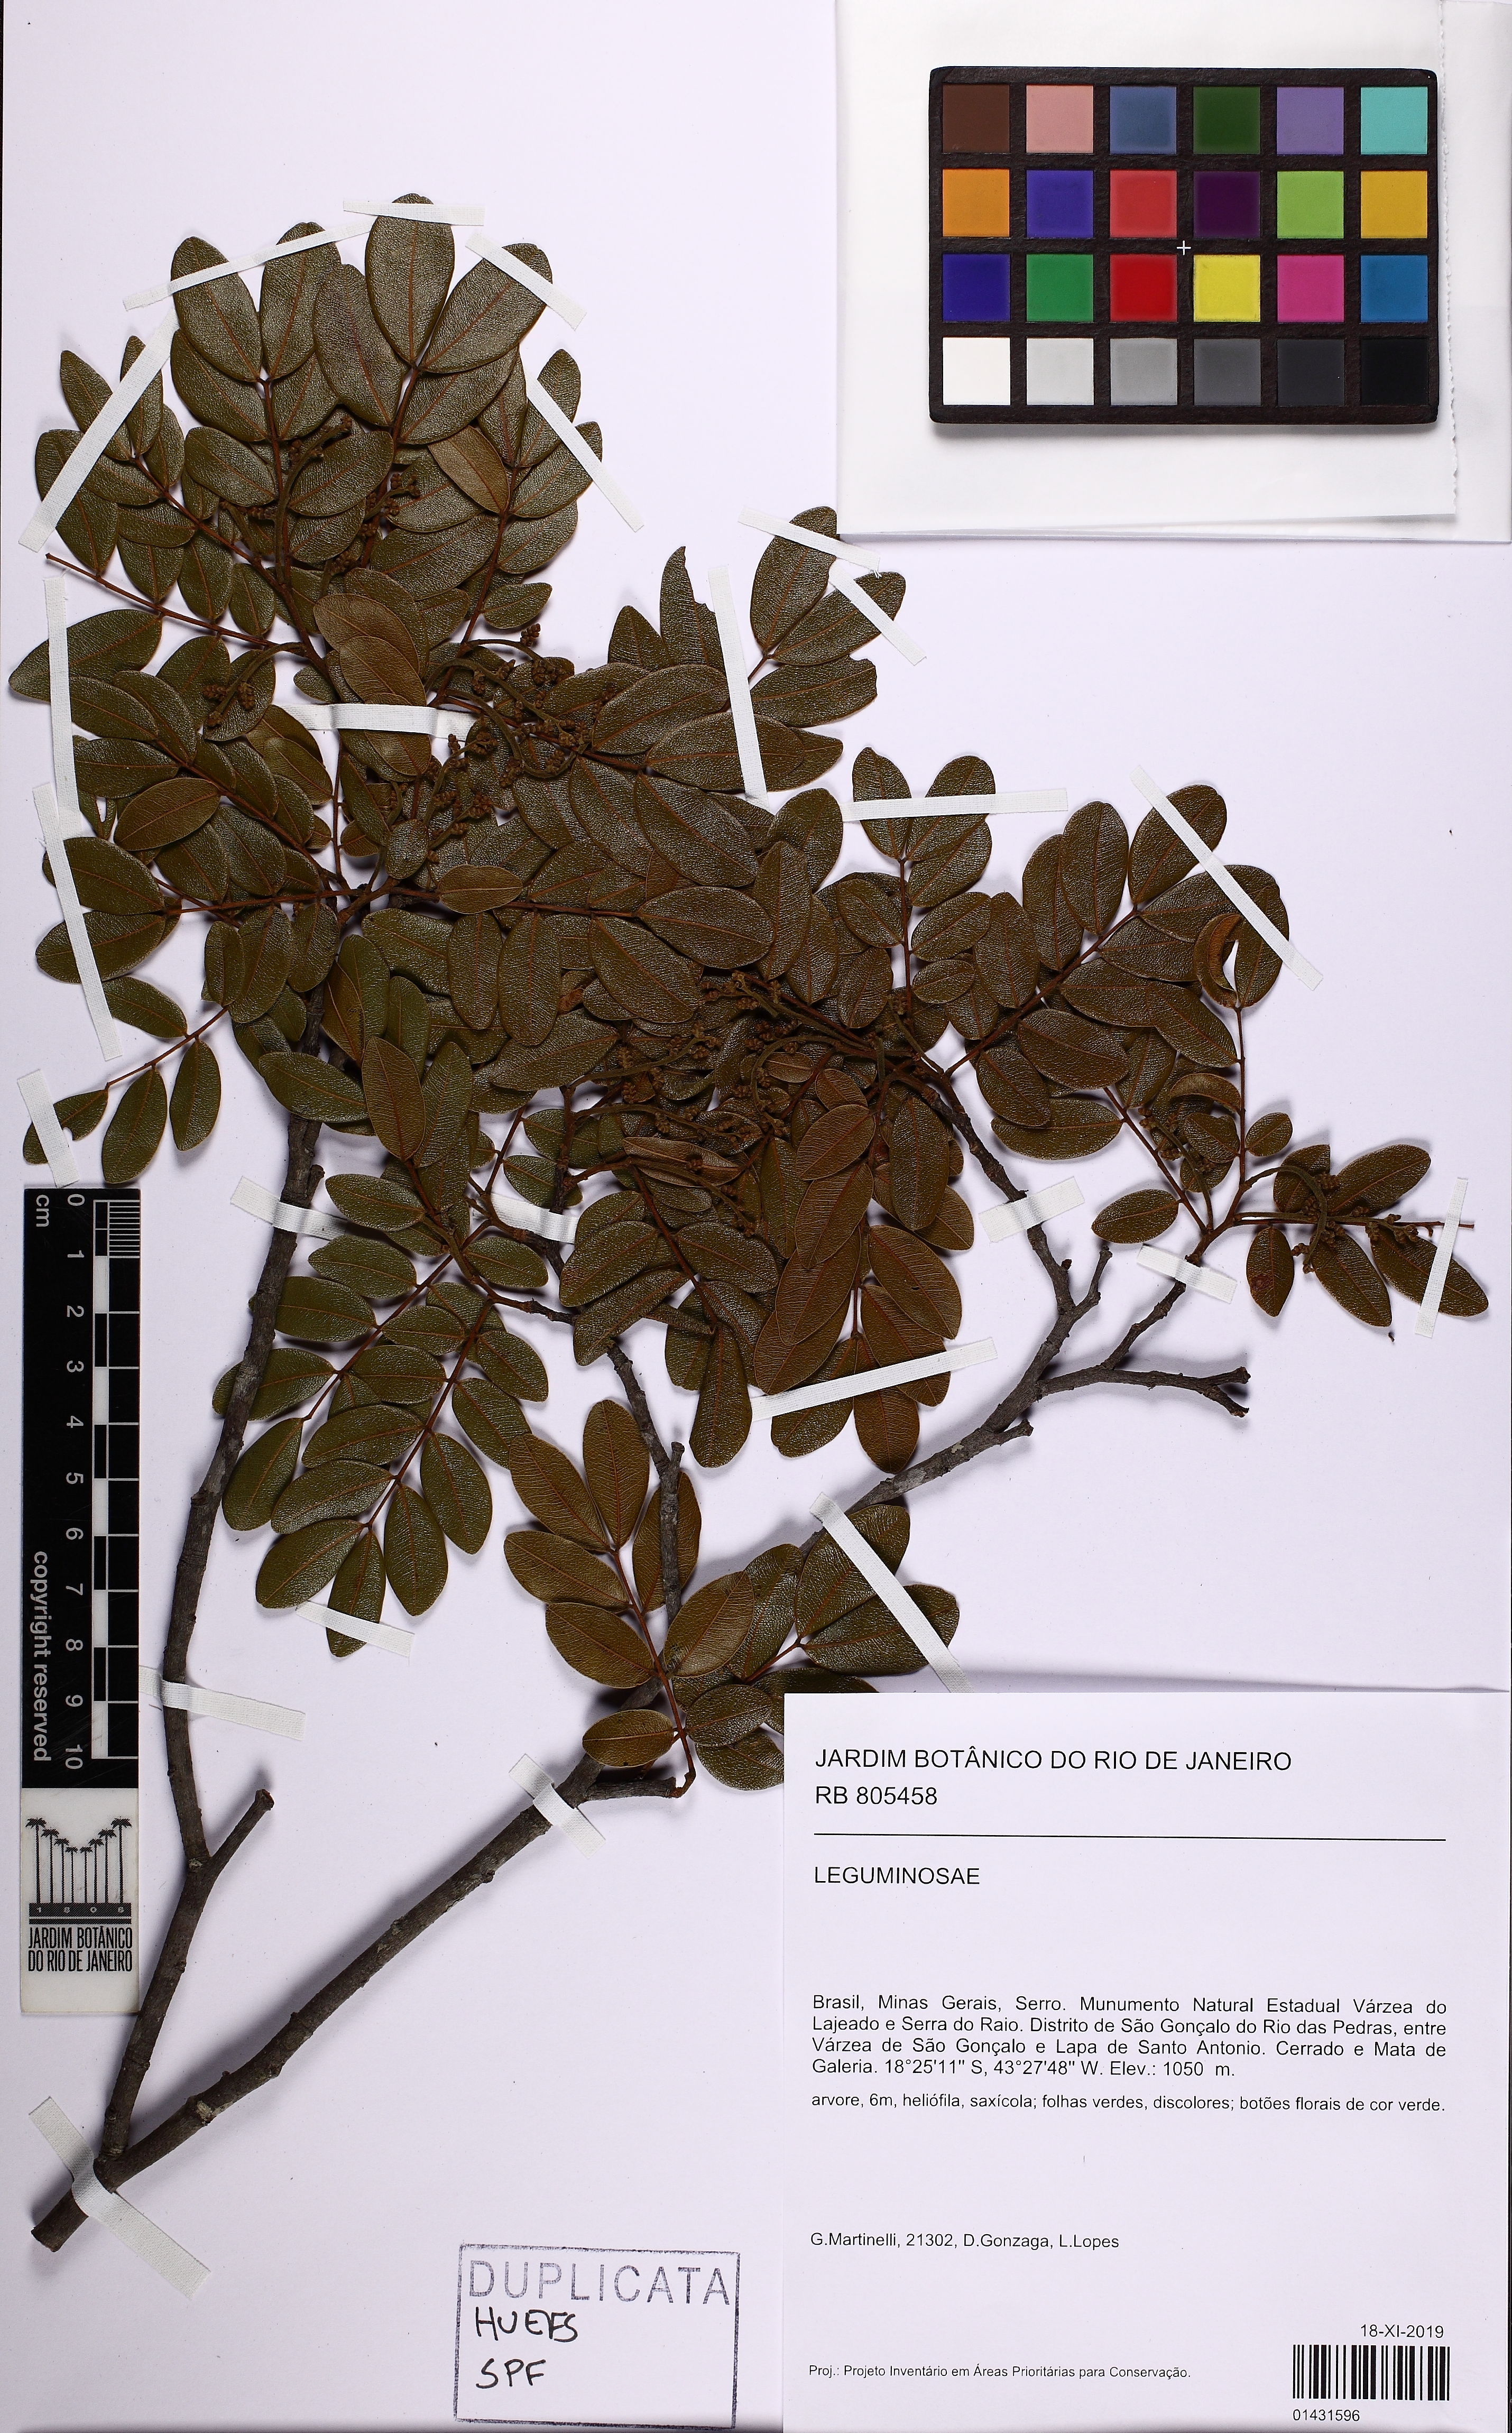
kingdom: Plantae
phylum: Tracheophyta
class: Magnoliopsida
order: Fabales
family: Fabaceae
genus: Copaifera
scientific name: Copaifera
